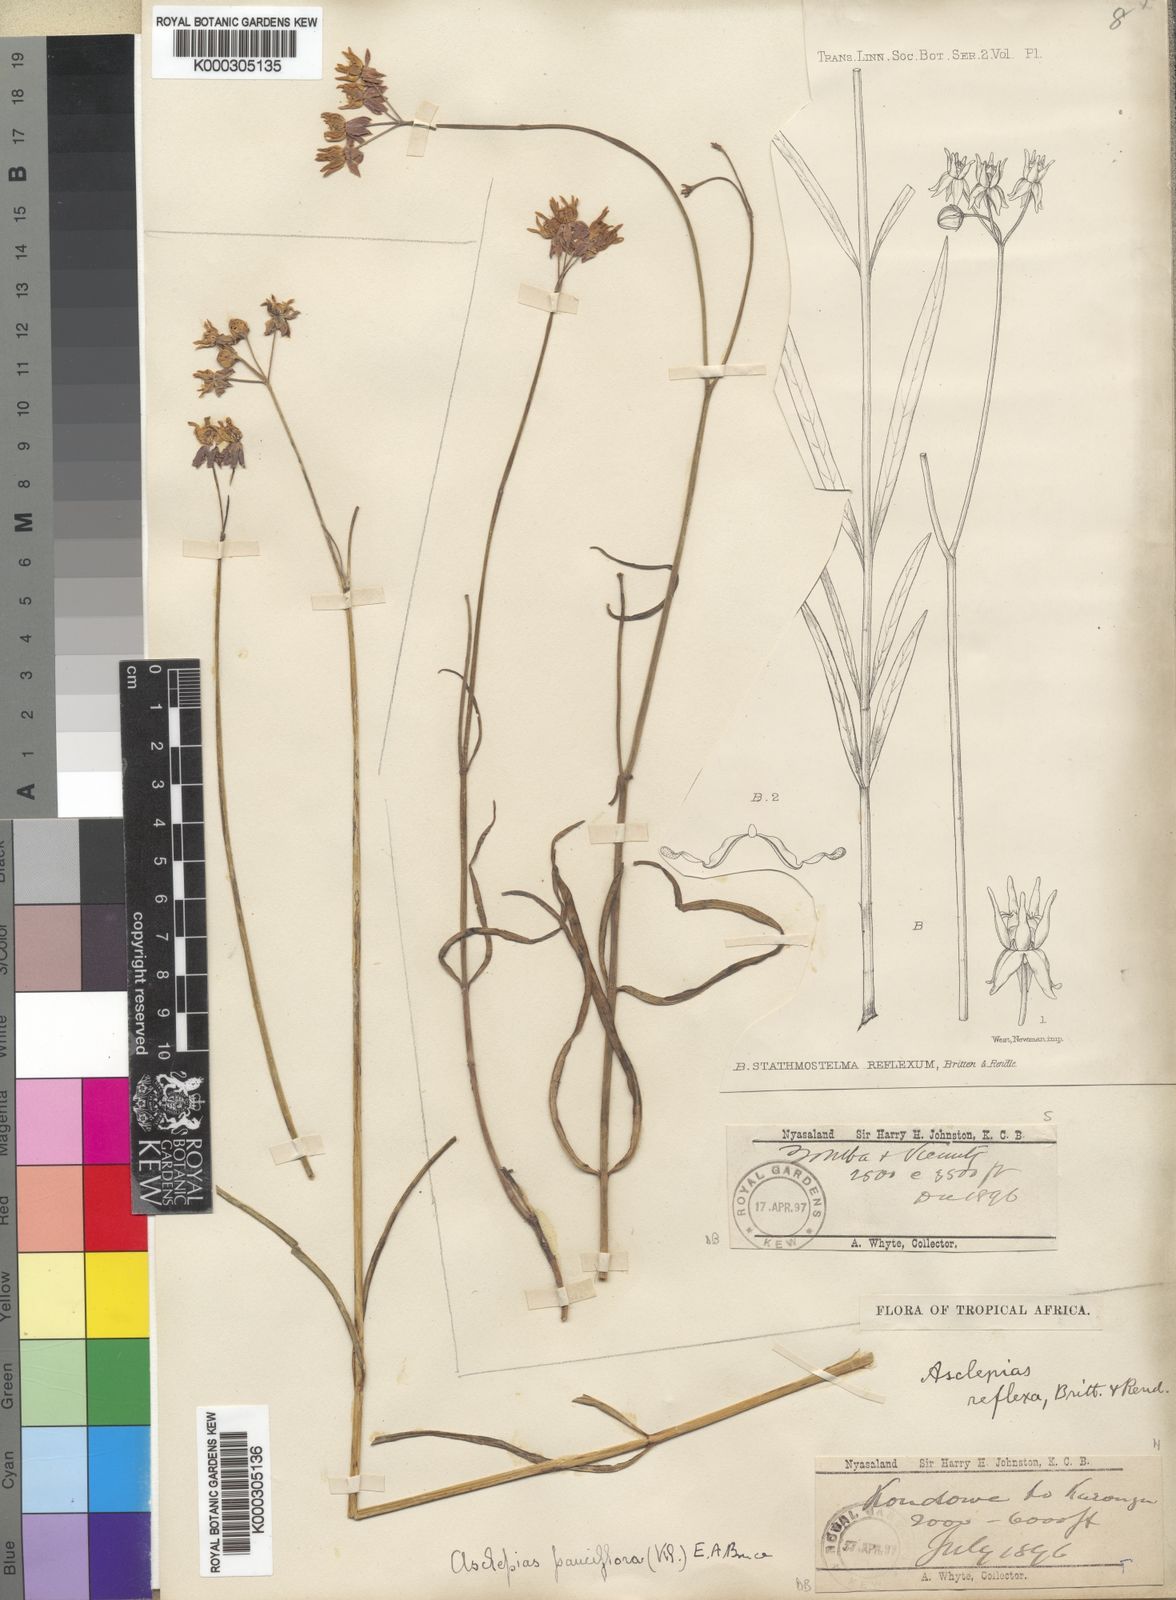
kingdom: Plantae
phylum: Tracheophyta
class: Magnoliopsida
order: Gentianales
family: Apocynaceae
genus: Stathmostelma
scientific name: Stathmostelma pauciflorum
